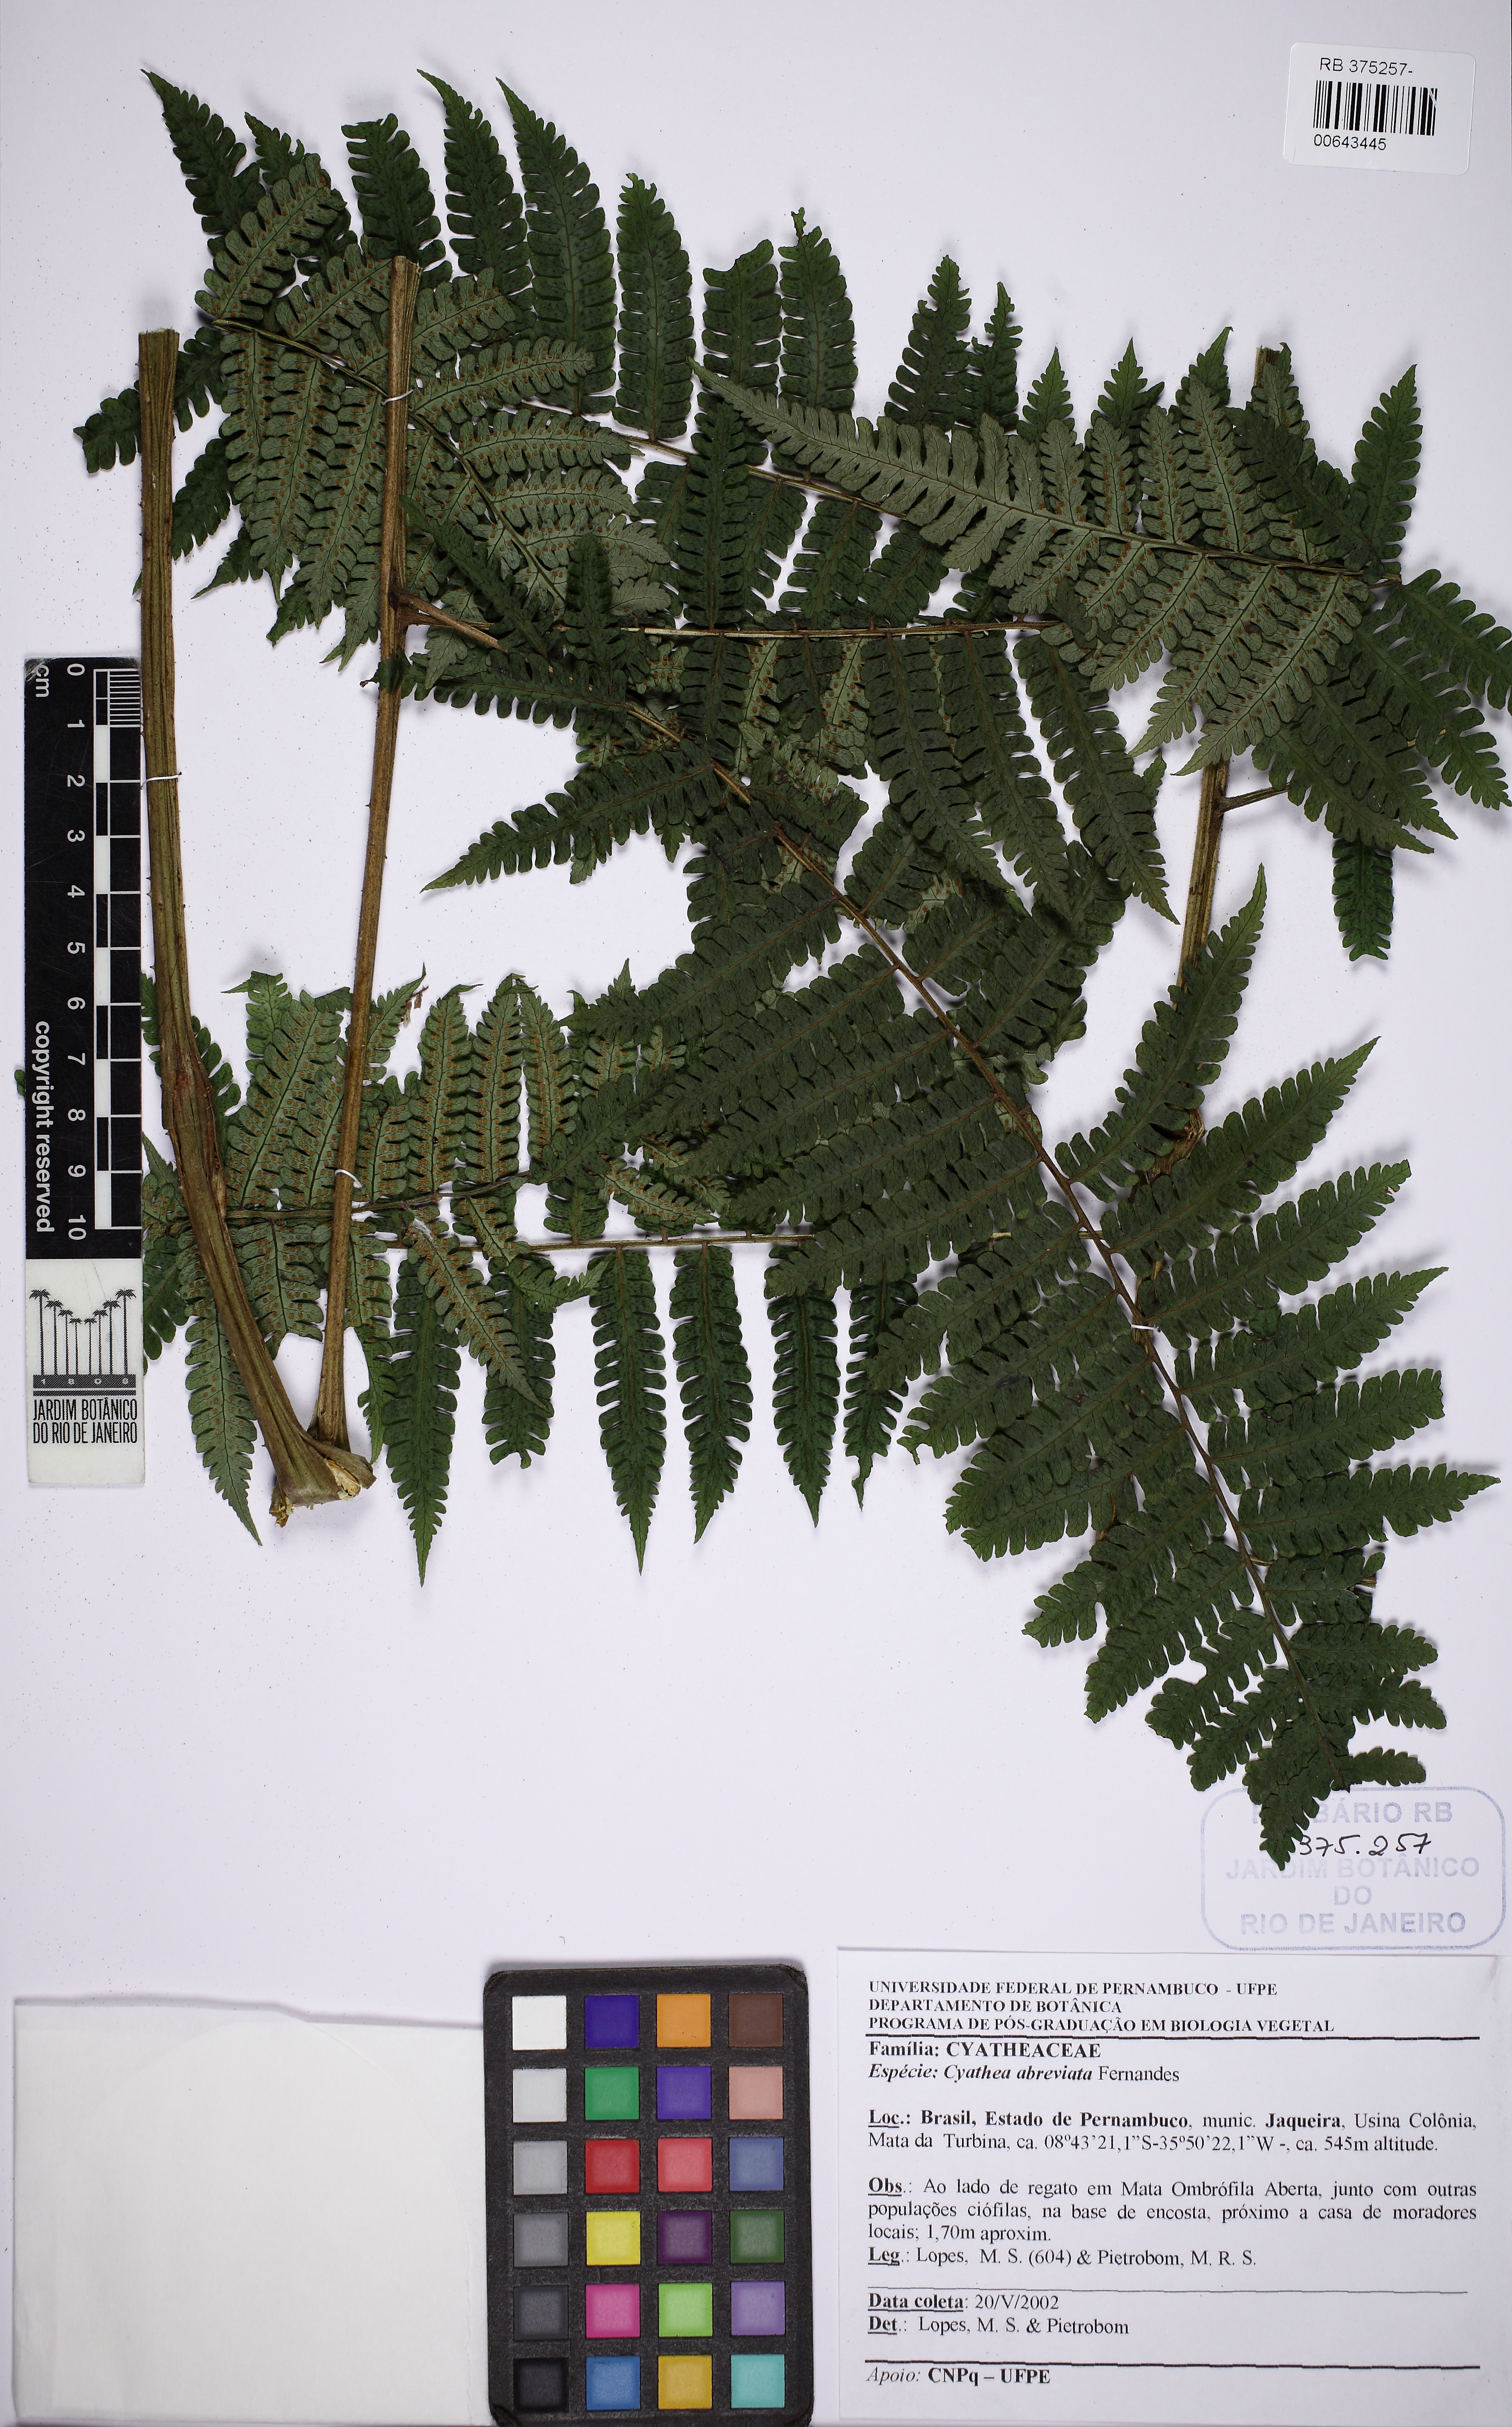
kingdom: Plantae
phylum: Tracheophyta
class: Polypodiopsida
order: Cyatheales
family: Cyatheaceae
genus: Cyathea
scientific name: Cyathea abbreviata
